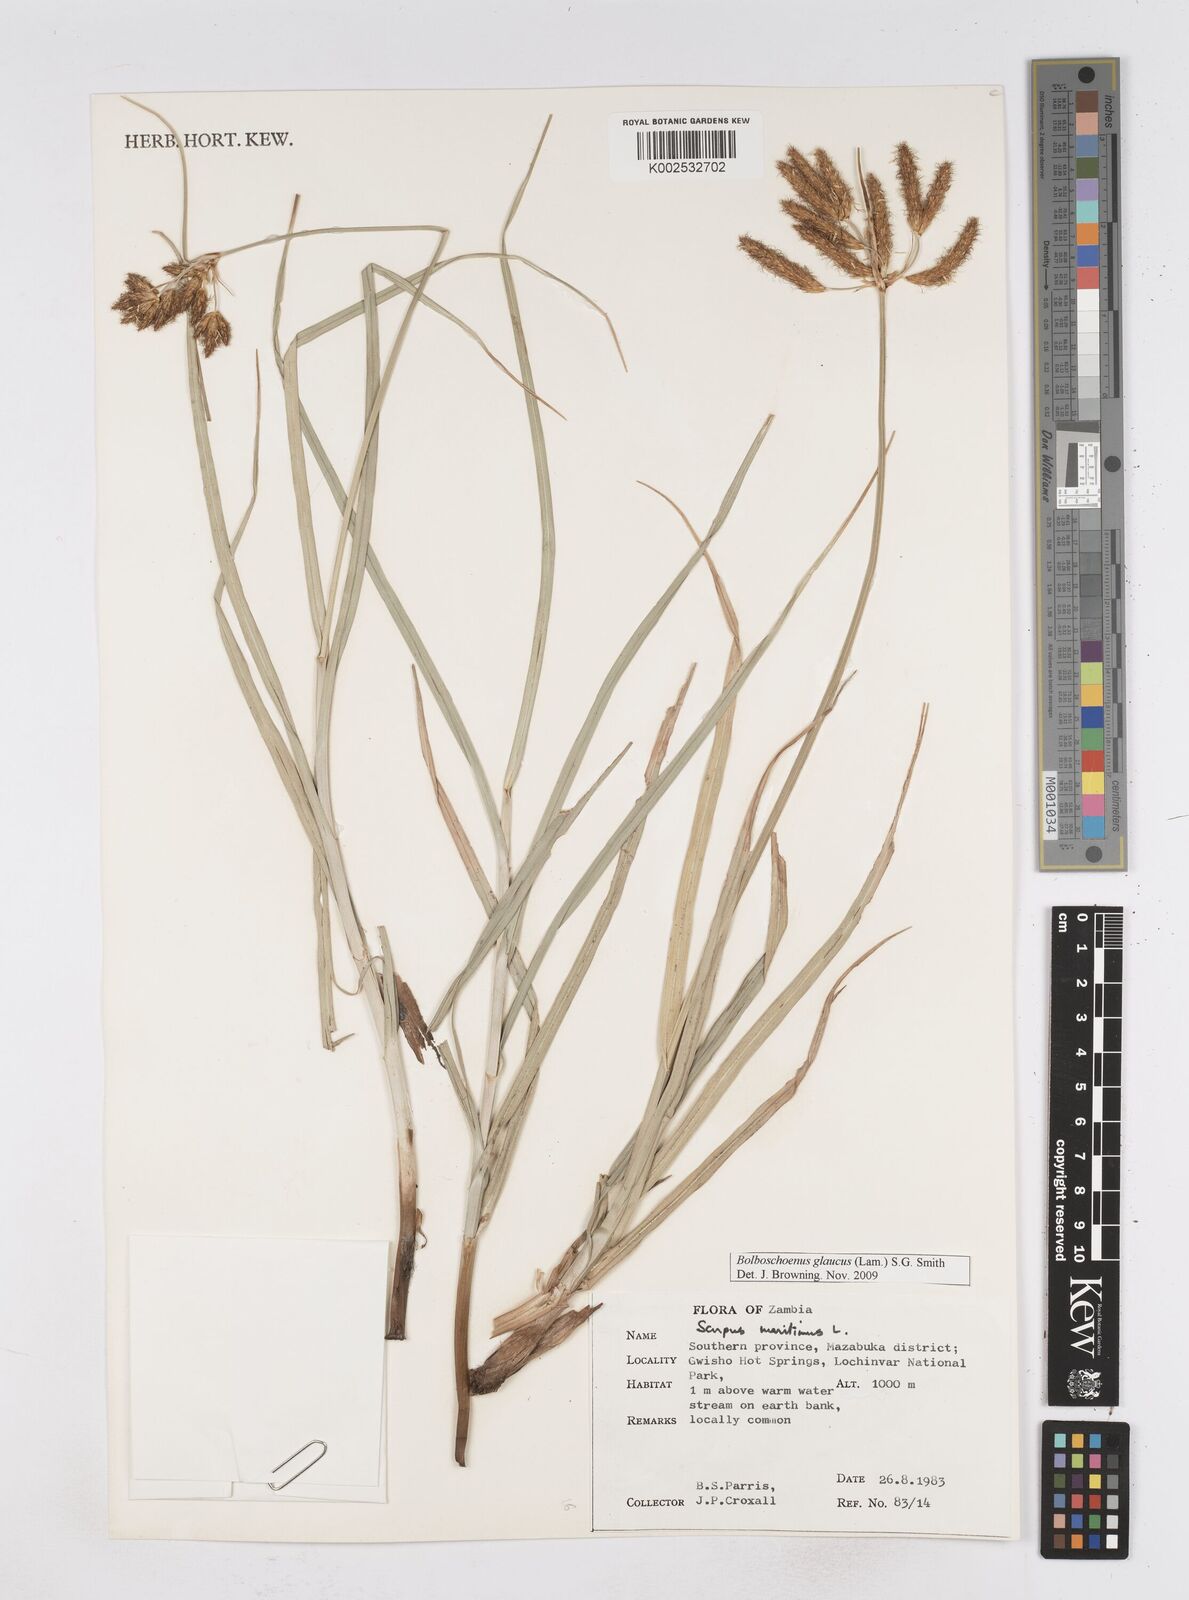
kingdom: Plantae
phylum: Tracheophyta
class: Liliopsida
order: Poales
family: Cyperaceae
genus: Bolboschoenus
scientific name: Bolboschoenus glaucus
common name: Tuberous bulrush
